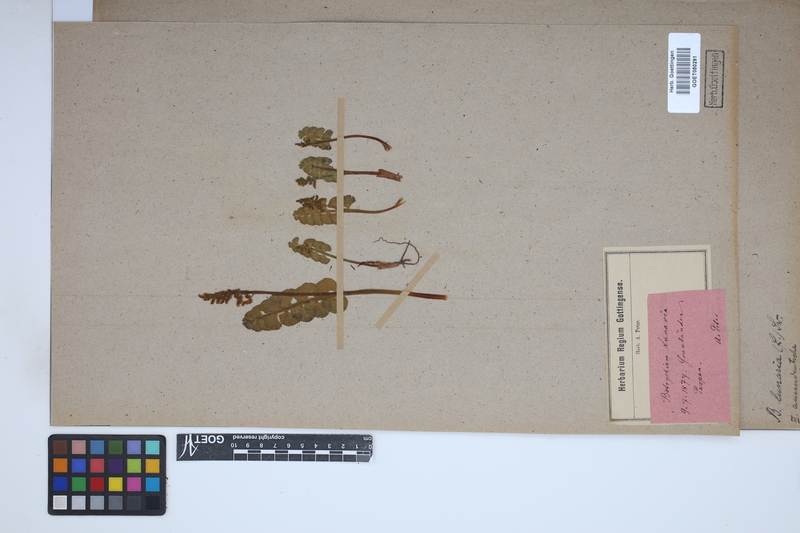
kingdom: Plantae
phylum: Tracheophyta
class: Polypodiopsida
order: Ophioglossales
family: Ophioglossaceae
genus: Botrychium
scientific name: Botrychium lunaria
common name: Moonwort
